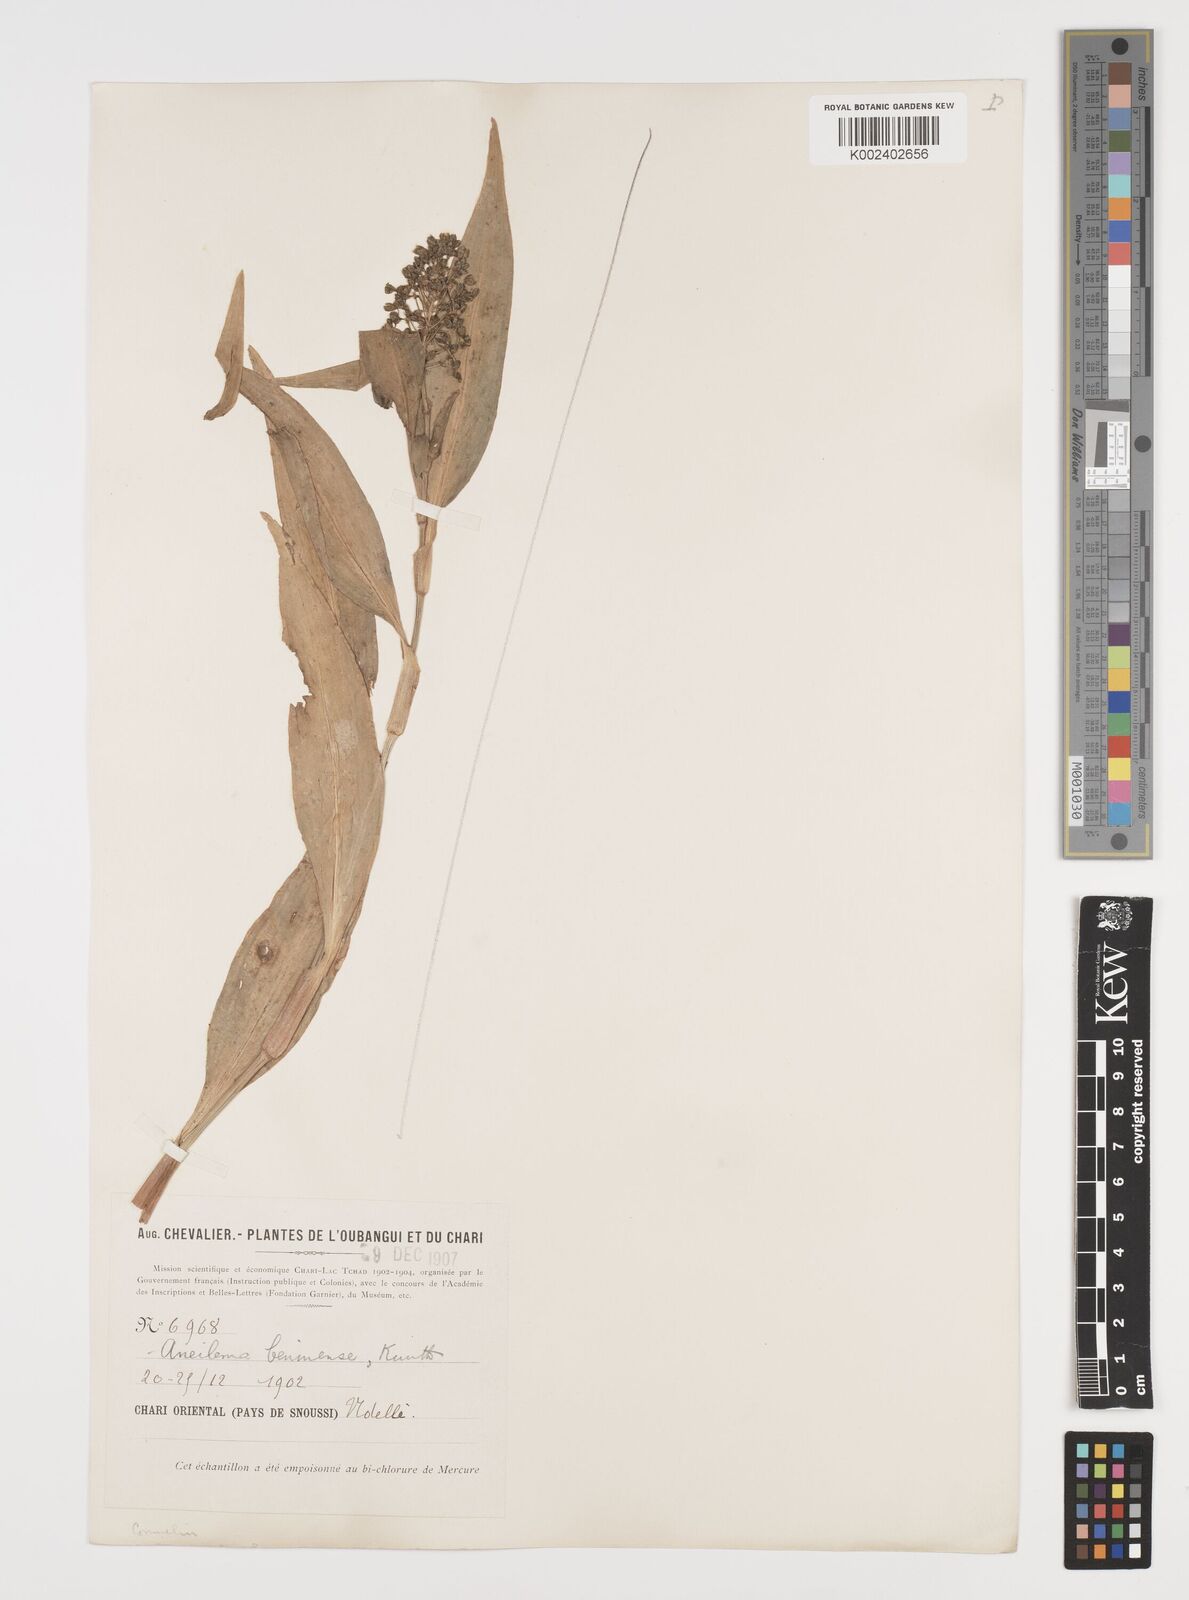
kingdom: Plantae
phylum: Tracheophyta
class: Liliopsida
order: Commelinales
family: Commelinaceae
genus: Aneilema
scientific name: Aneilema beniniense
